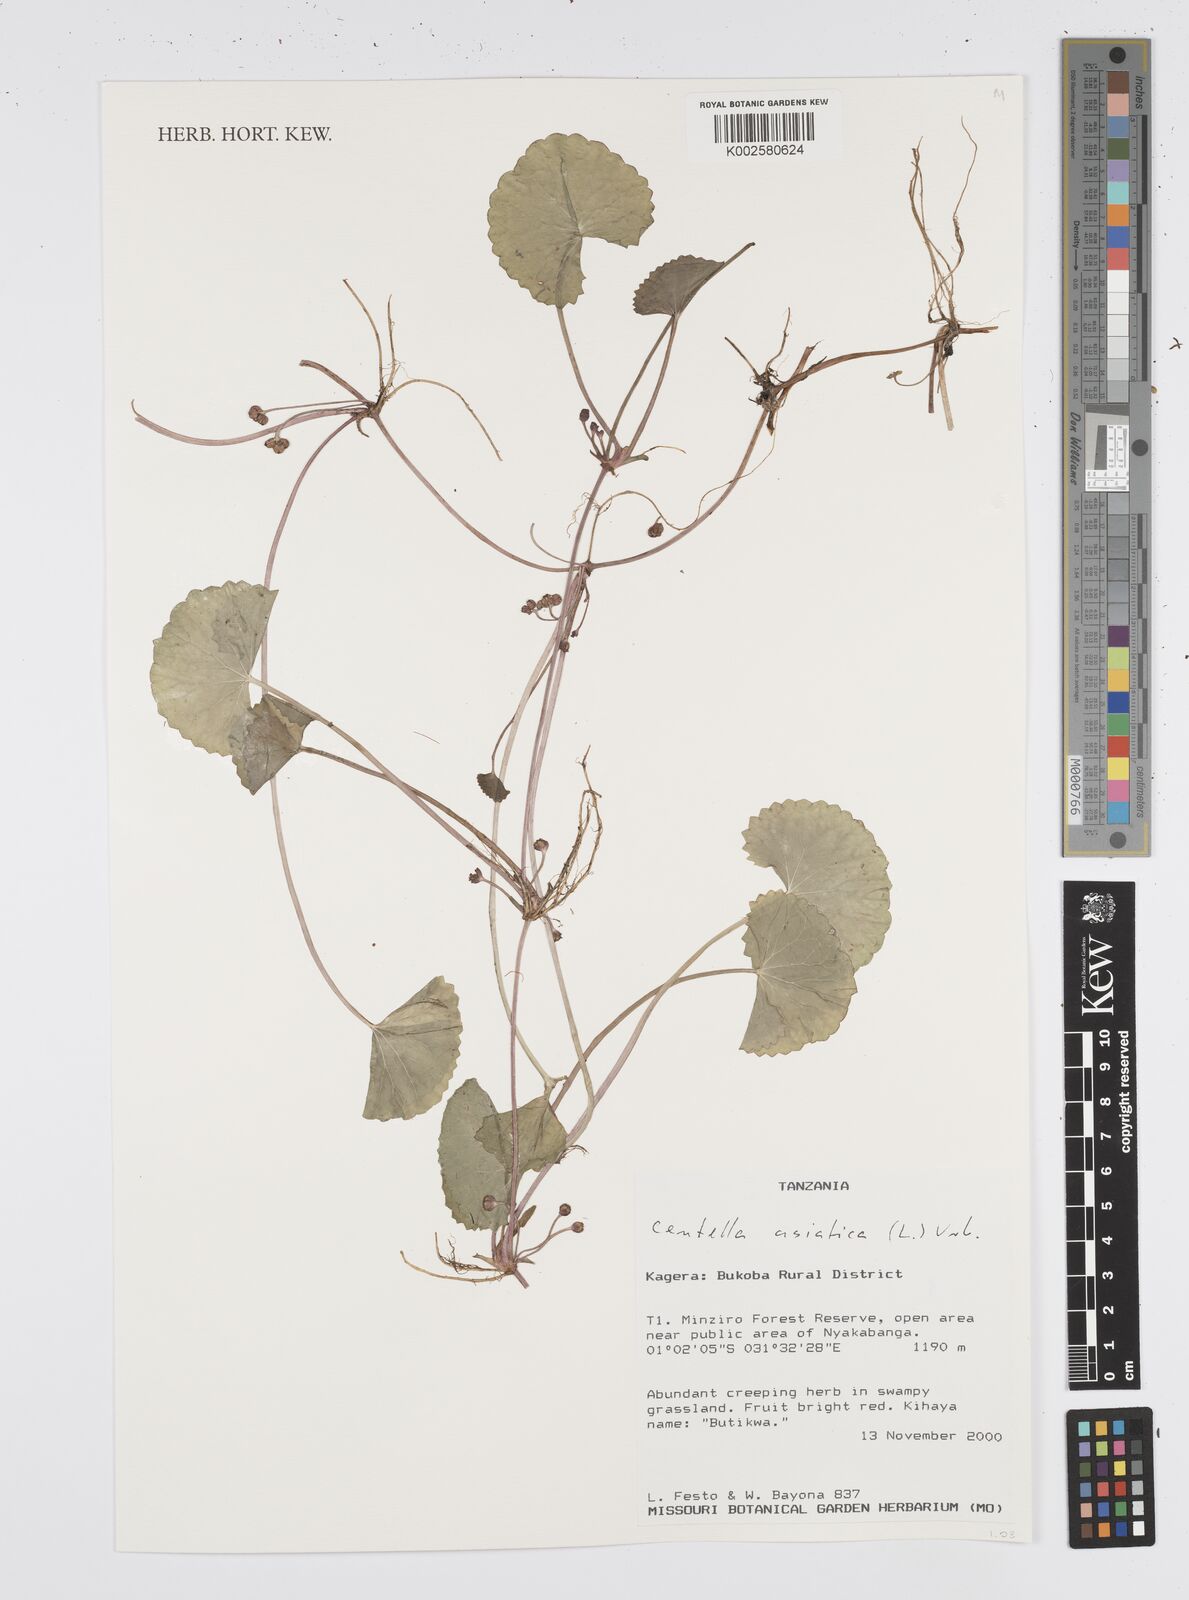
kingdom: Plantae
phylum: Tracheophyta
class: Magnoliopsida
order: Apiales
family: Apiaceae
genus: Centella
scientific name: Centella asiatica
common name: Spadeleaf
